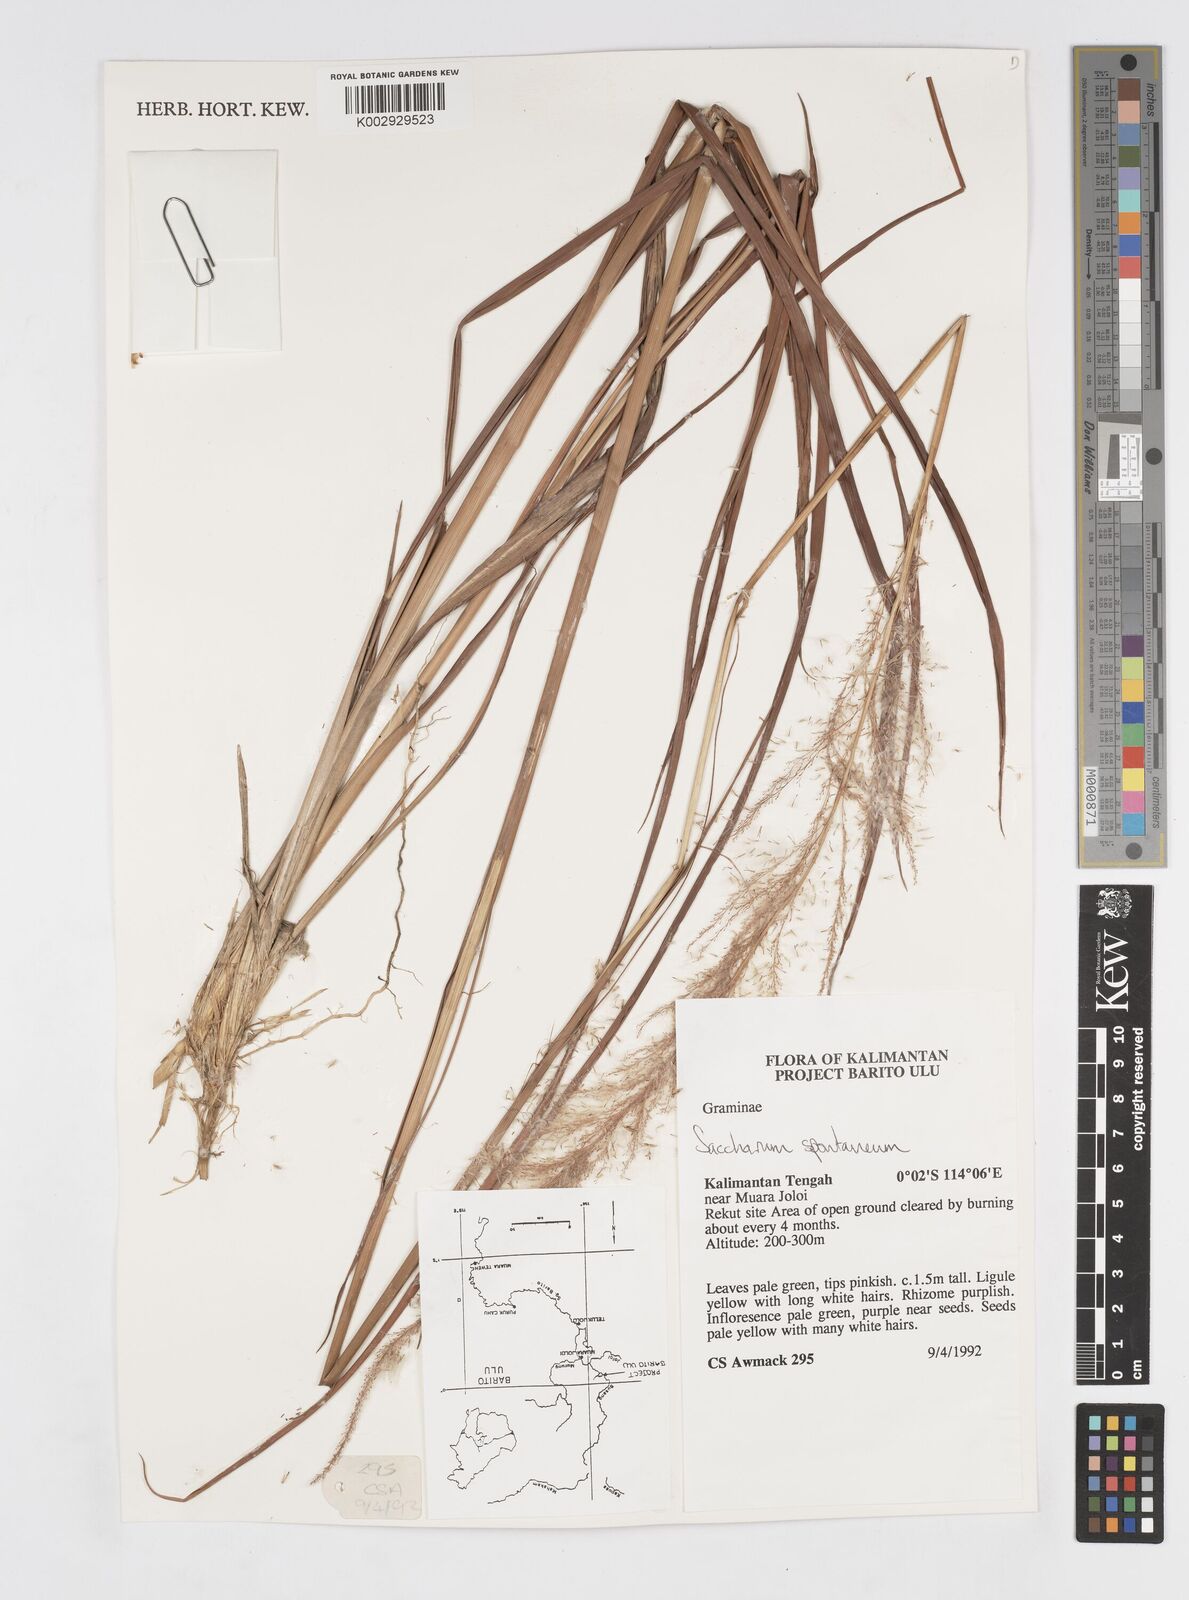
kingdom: Plantae
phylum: Tracheophyta
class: Liliopsida
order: Poales
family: Poaceae
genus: Saccharum
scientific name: Saccharum spontaneum
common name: Wild sugarcane
